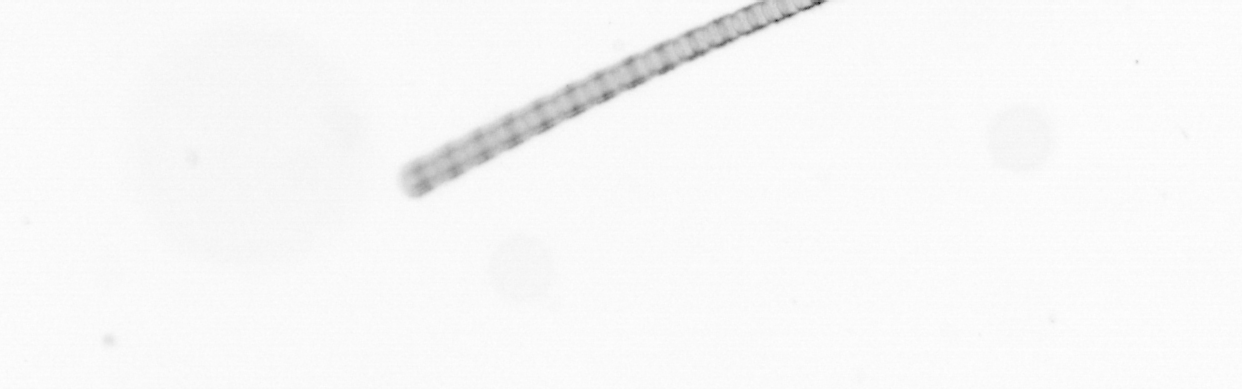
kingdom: Chromista
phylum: Ochrophyta
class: Bacillariophyceae
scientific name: Bacillariophyceae
